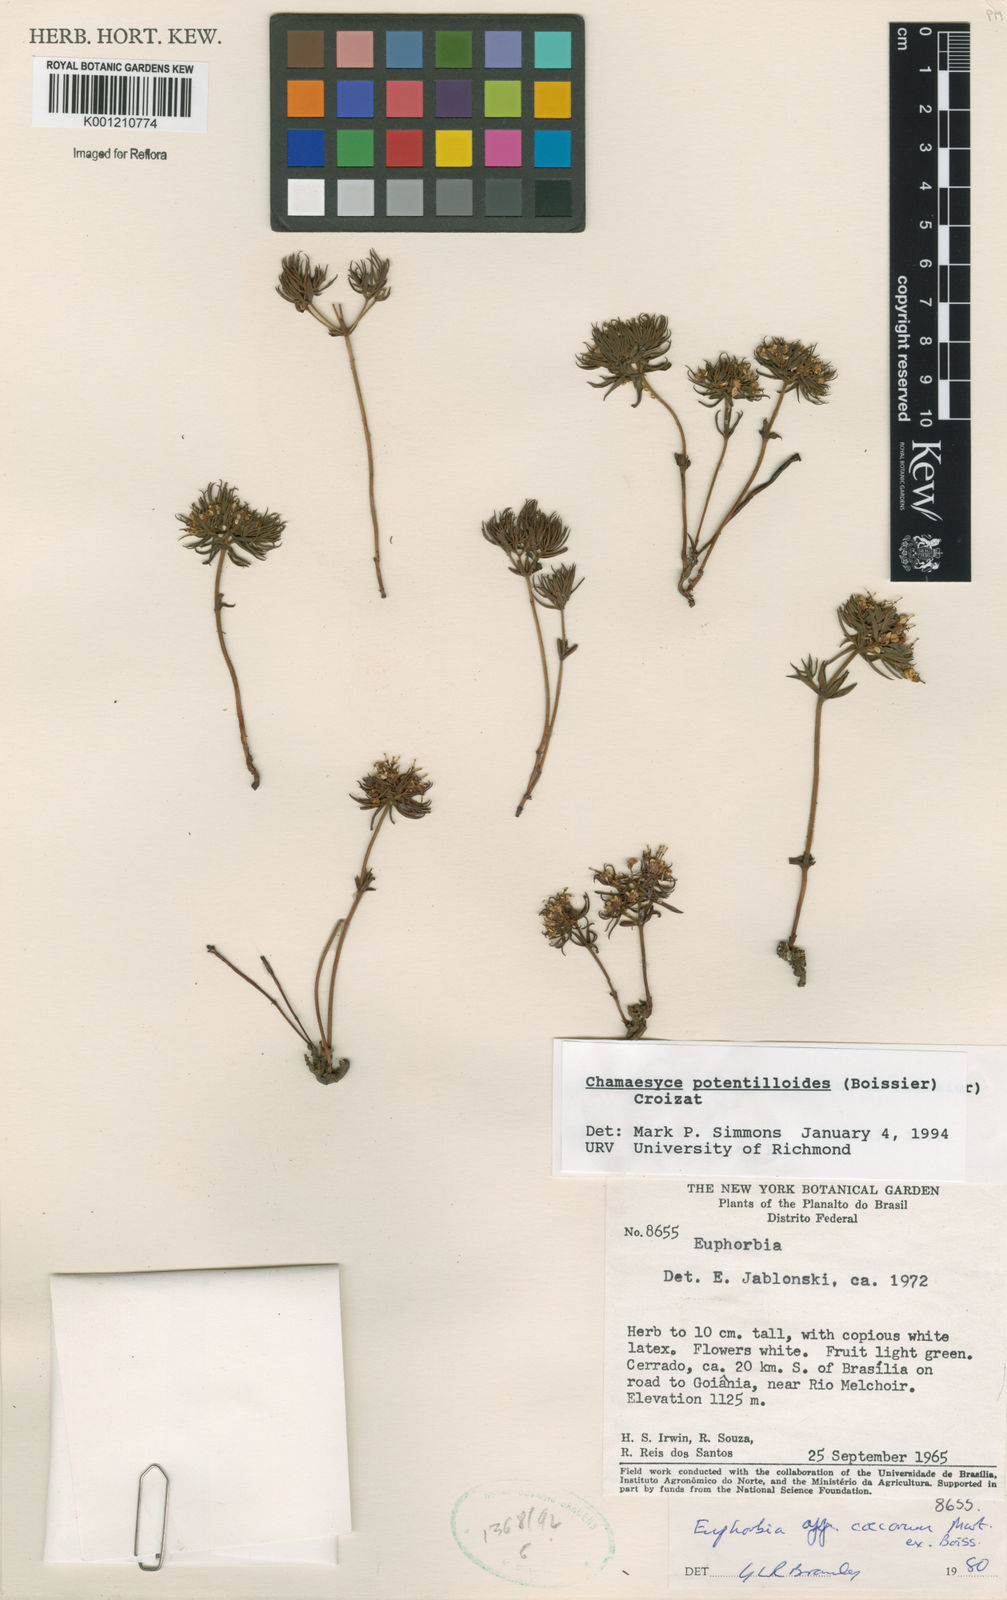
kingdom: Plantae
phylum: Tracheophyta
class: Magnoliopsida
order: Malpighiales
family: Euphorbiaceae
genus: Euphorbia
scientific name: Euphorbia potentilloides
